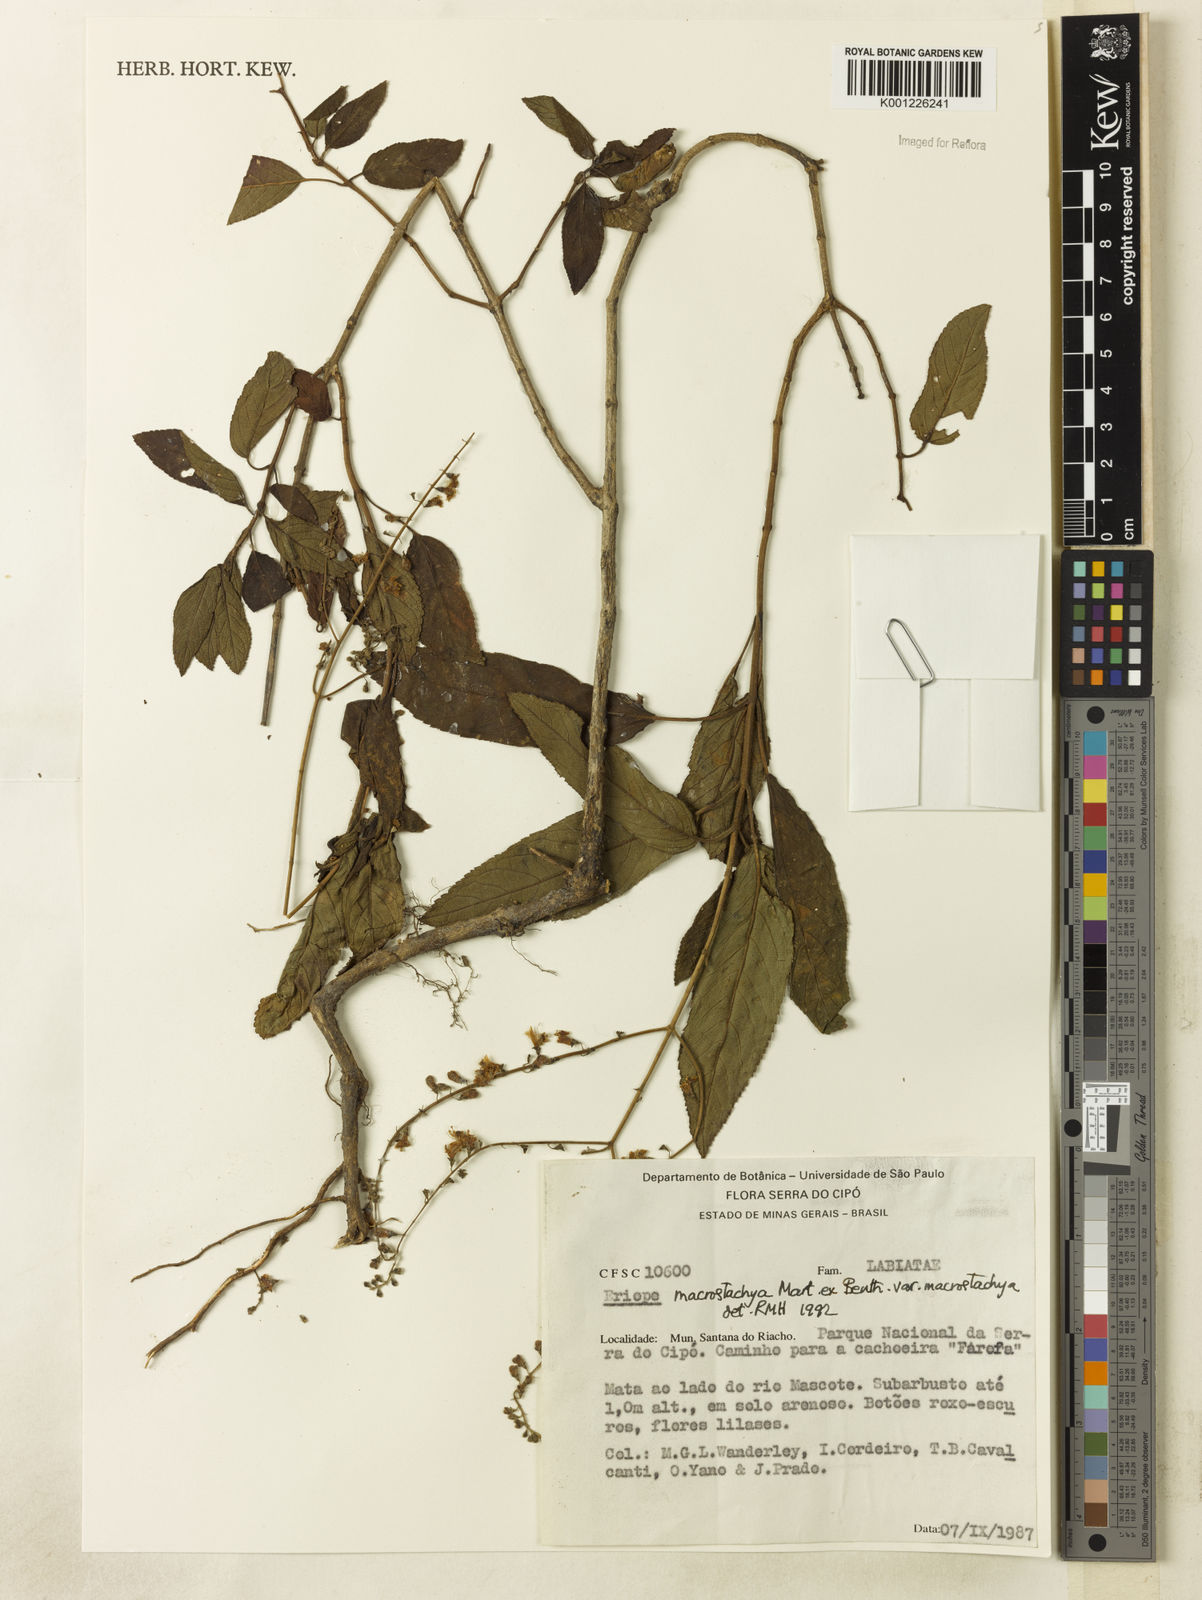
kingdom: Plantae
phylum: Tracheophyta
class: Magnoliopsida
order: Lamiales
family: Lamiaceae
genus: Eriope
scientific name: Eriope macrostachya
